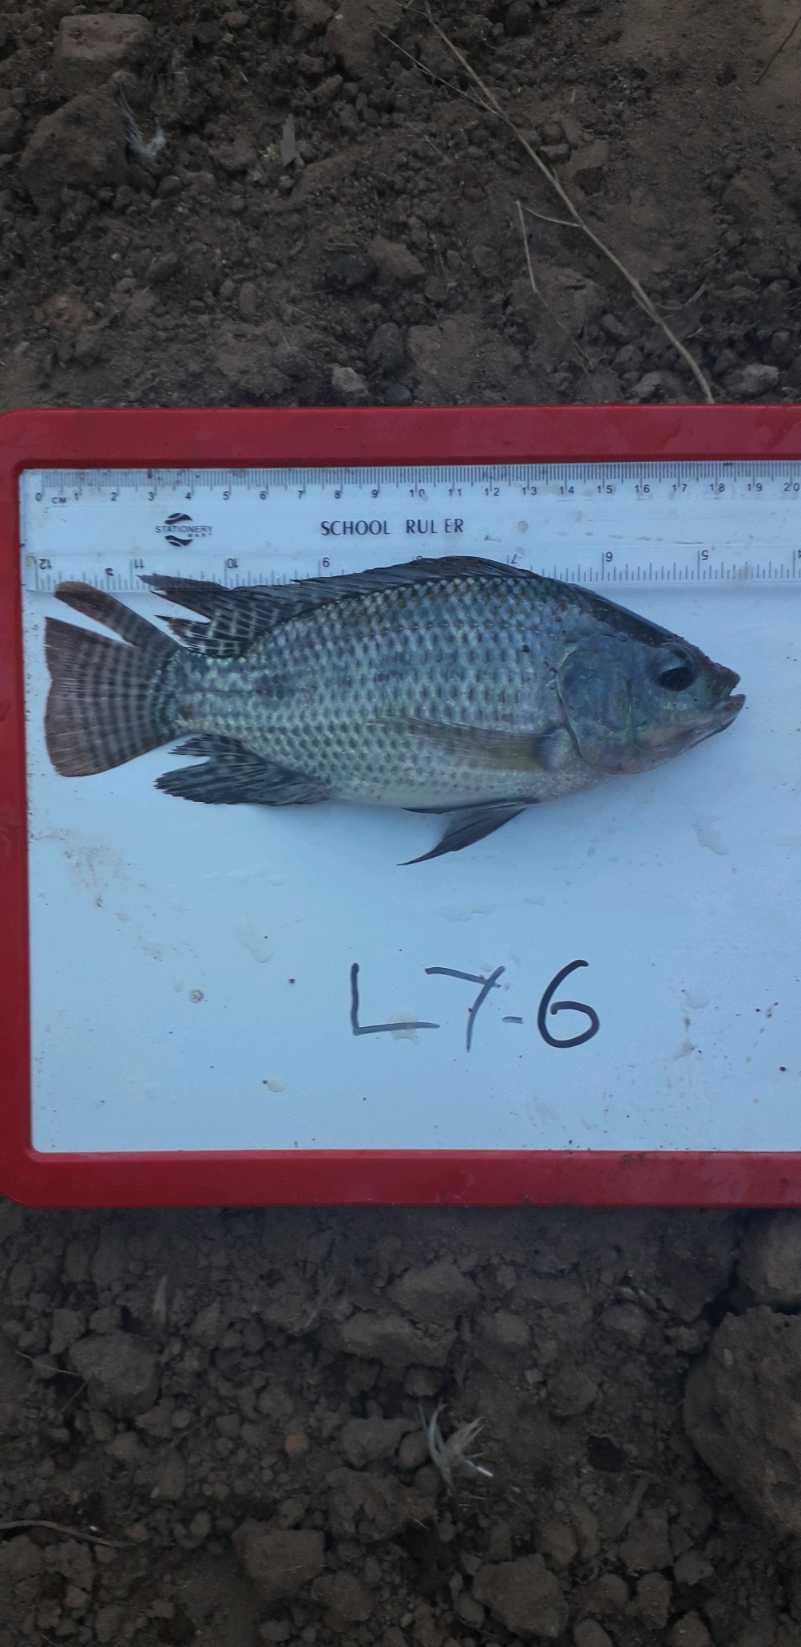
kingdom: Animalia
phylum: Chordata
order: Perciformes
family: Cichlidae
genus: Oreochromis
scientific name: Oreochromis niloticus
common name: Nile tilapia
